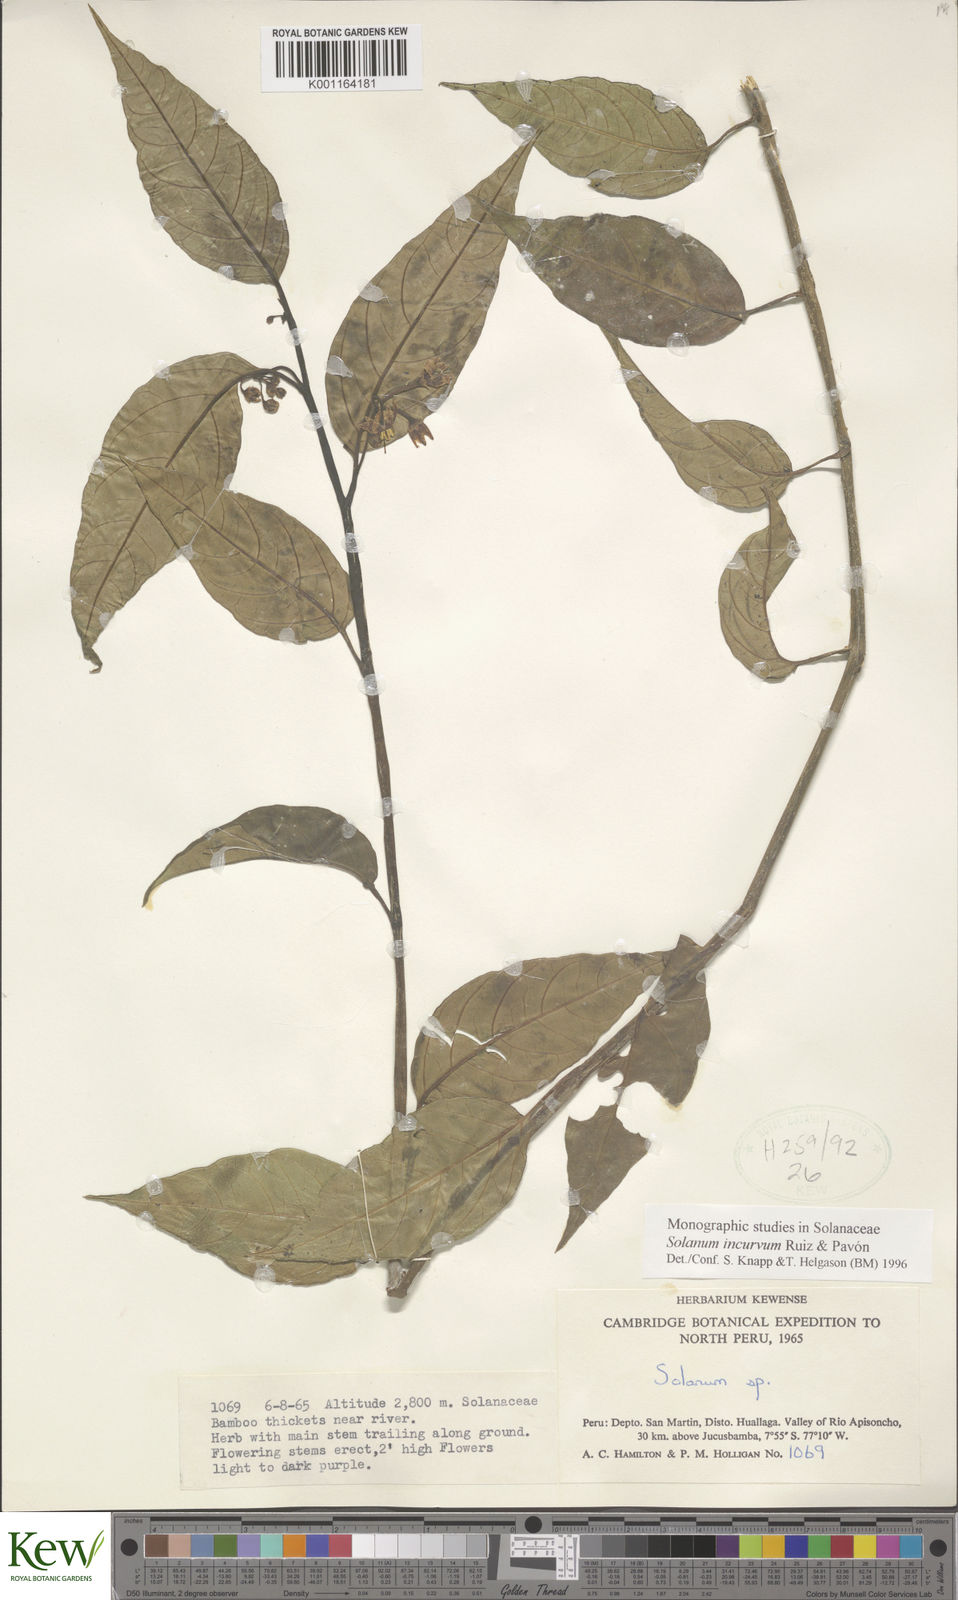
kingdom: Plantae
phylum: Tracheophyta
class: Magnoliopsida
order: Solanales
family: Solanaceae
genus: Solanum
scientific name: Solanum incurvum
